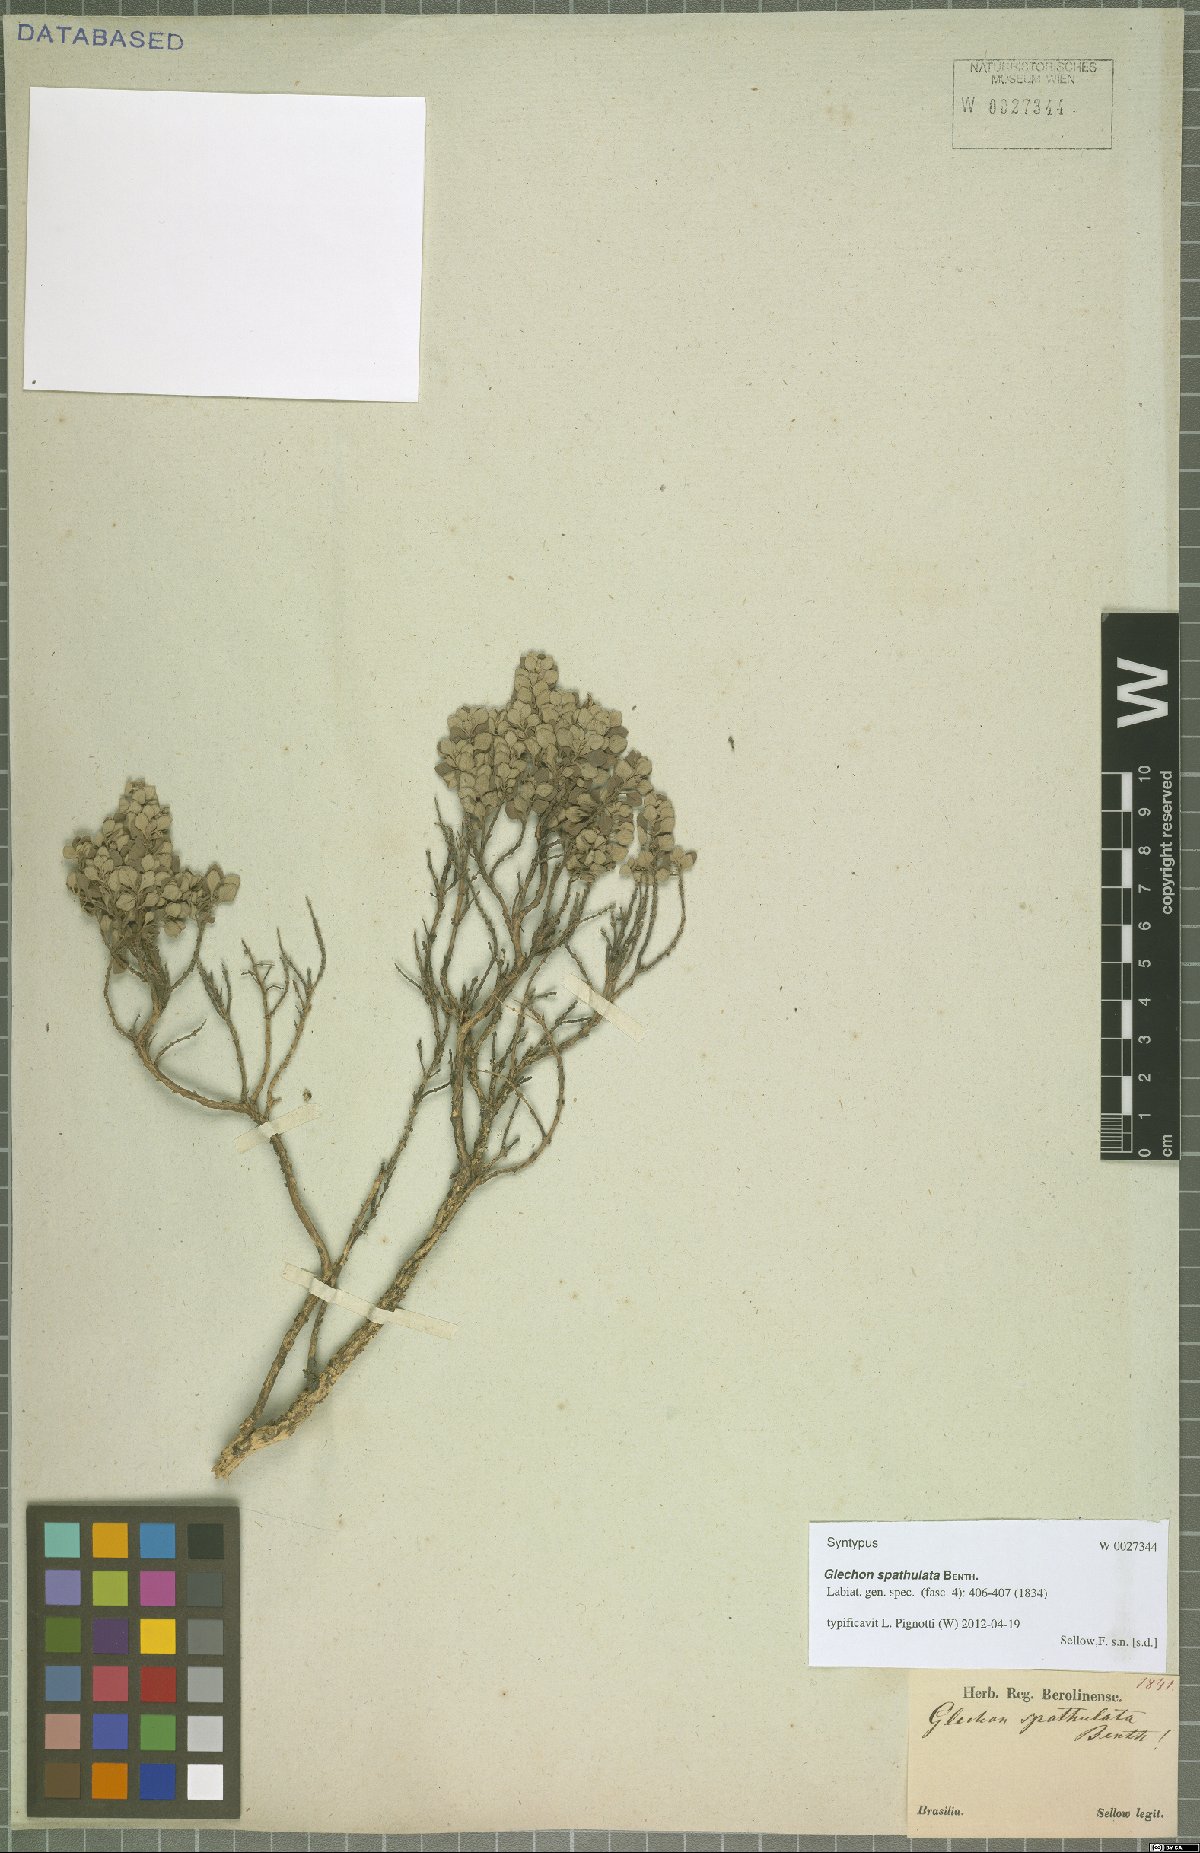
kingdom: Plantae
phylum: Tracheophyta
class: Magnoliopsida
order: Lamiales
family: Lamiaceae
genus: Glechon
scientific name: Glechon thymoides
